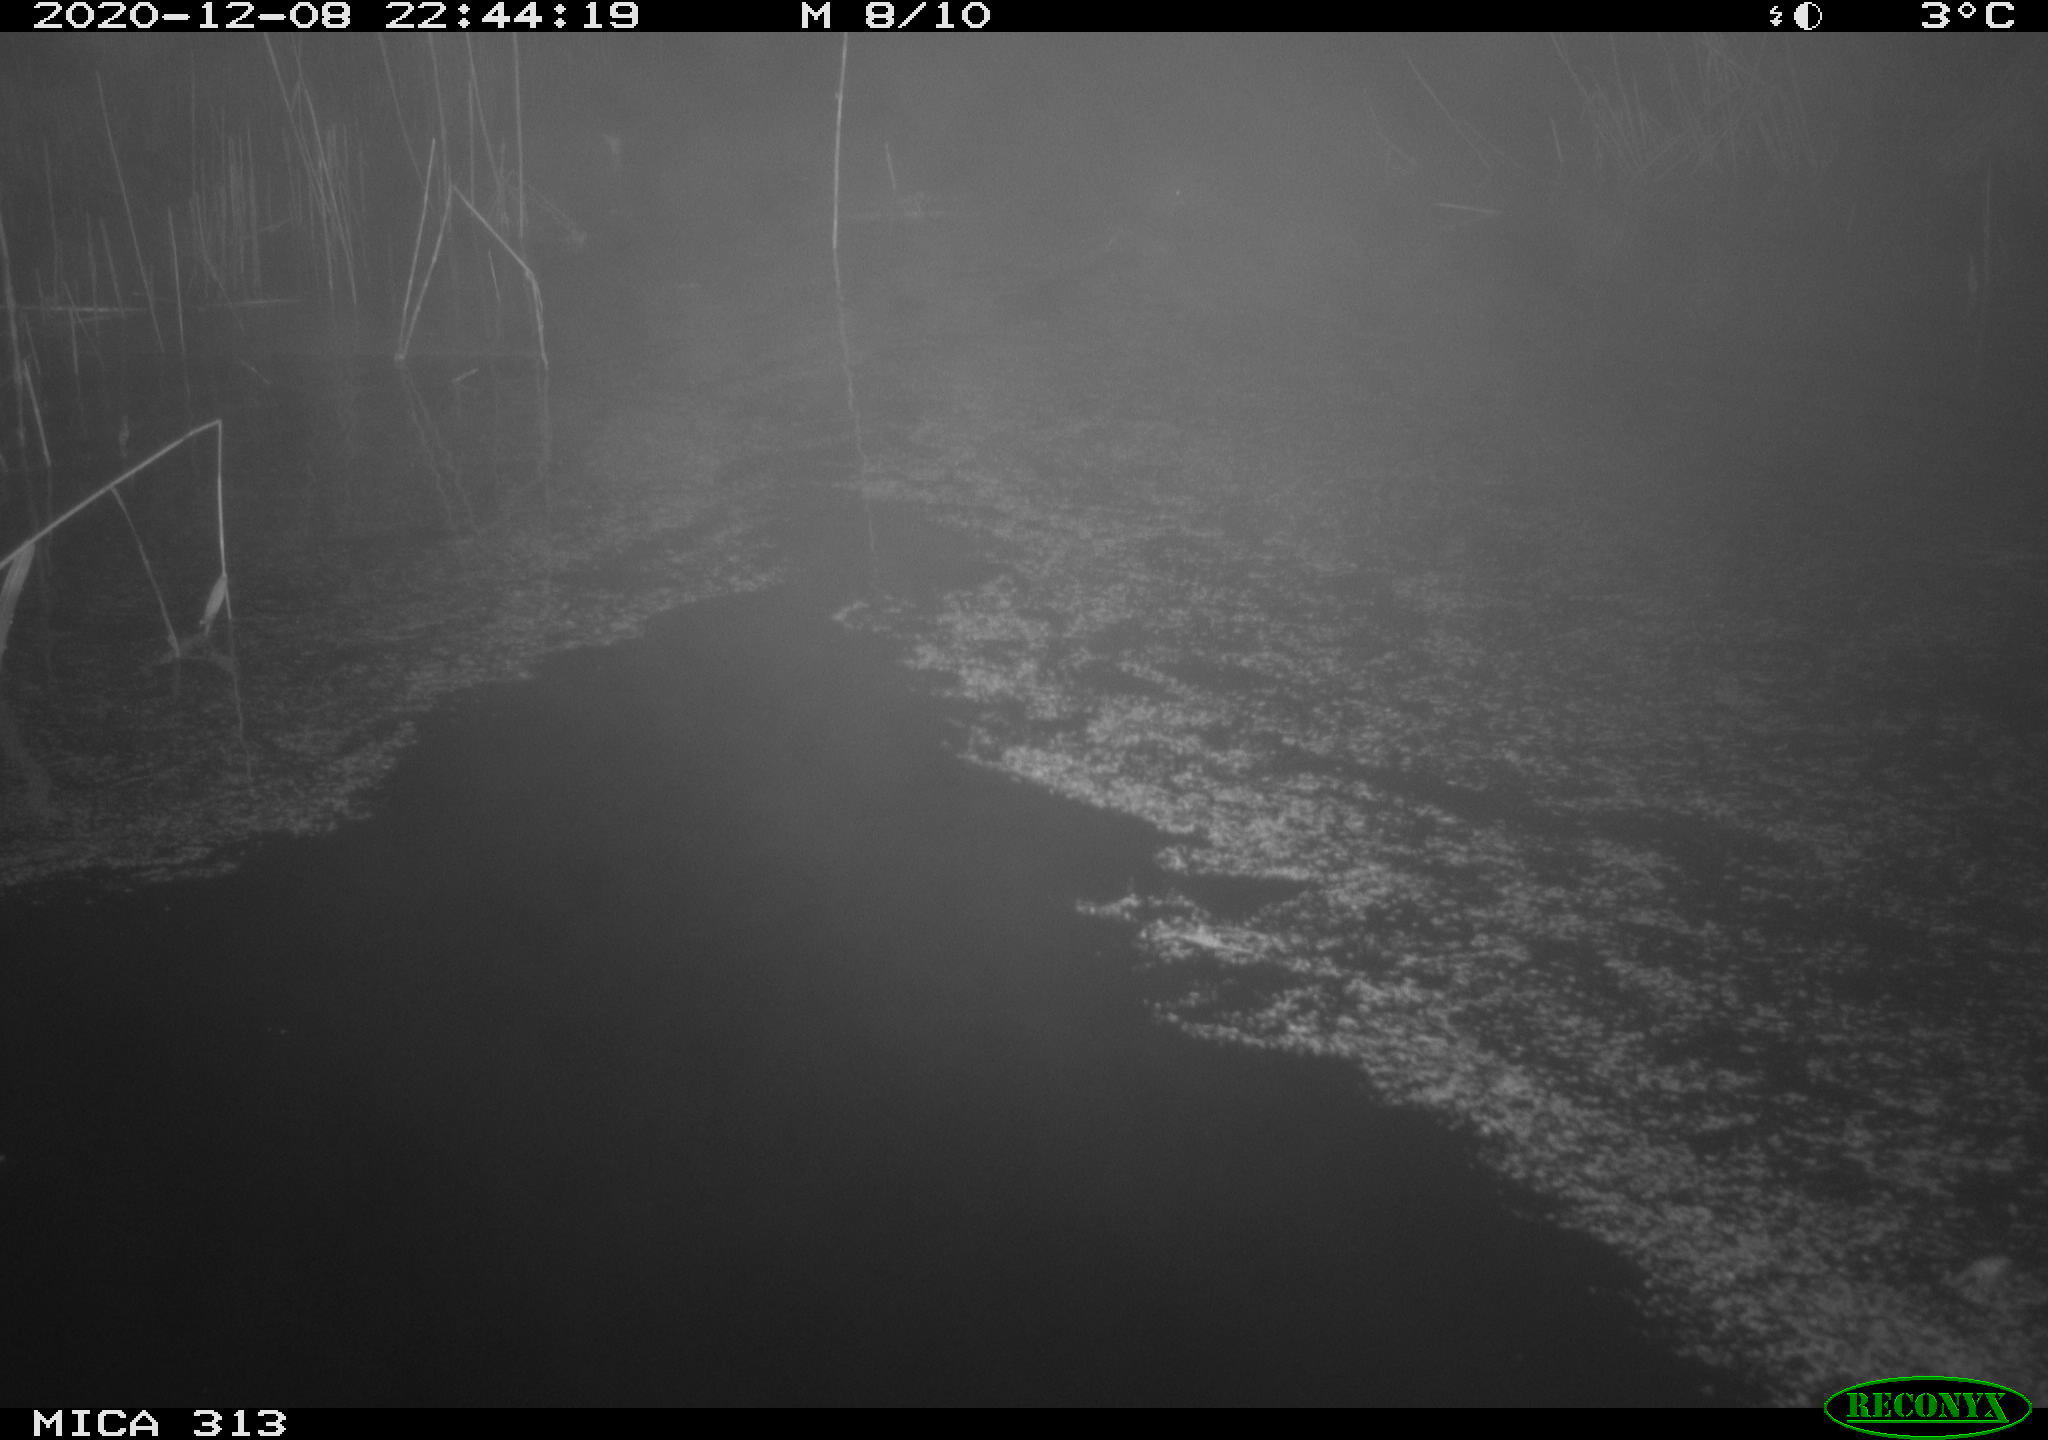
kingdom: Animalia
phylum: Chordata
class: Aves
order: Gruiformes
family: Rallidae
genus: Gallinula
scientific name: Gallinula chloropus
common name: Common moorhen
